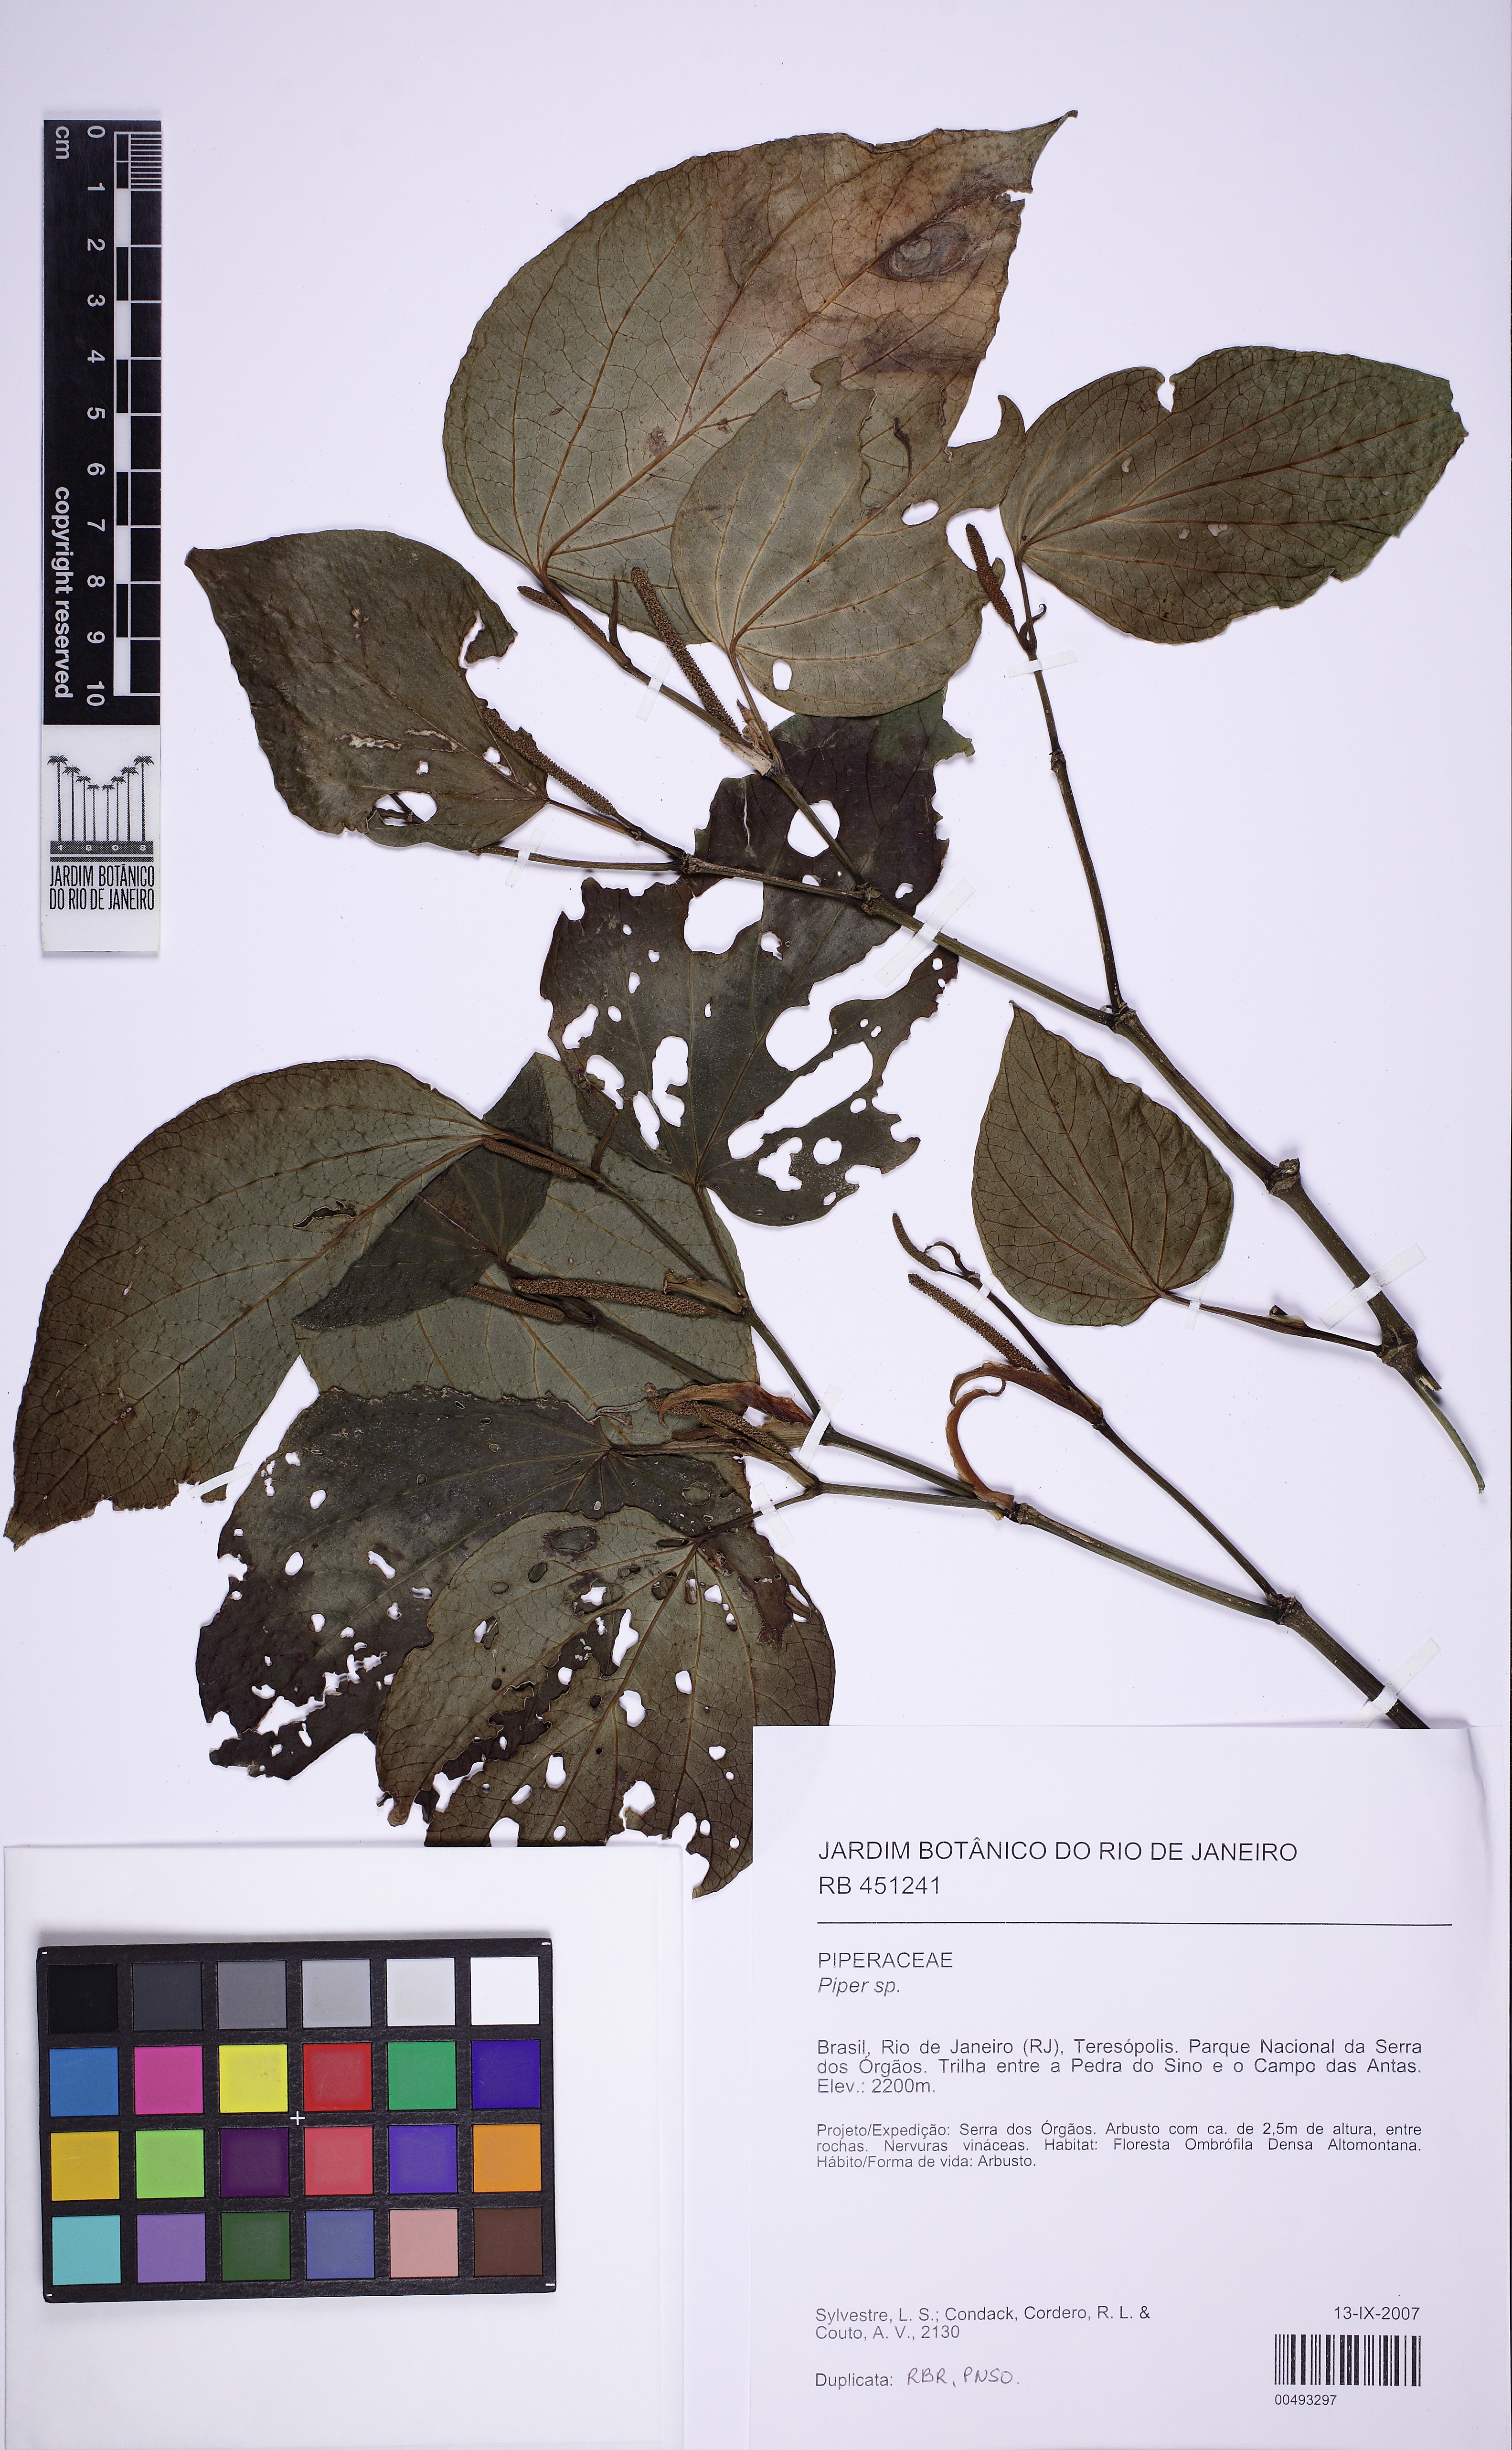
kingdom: Plantae
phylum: Tracheophyta
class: Magnoliopsida
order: Piperales
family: Piperaceae
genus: Piper
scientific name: Piper solmsianum
